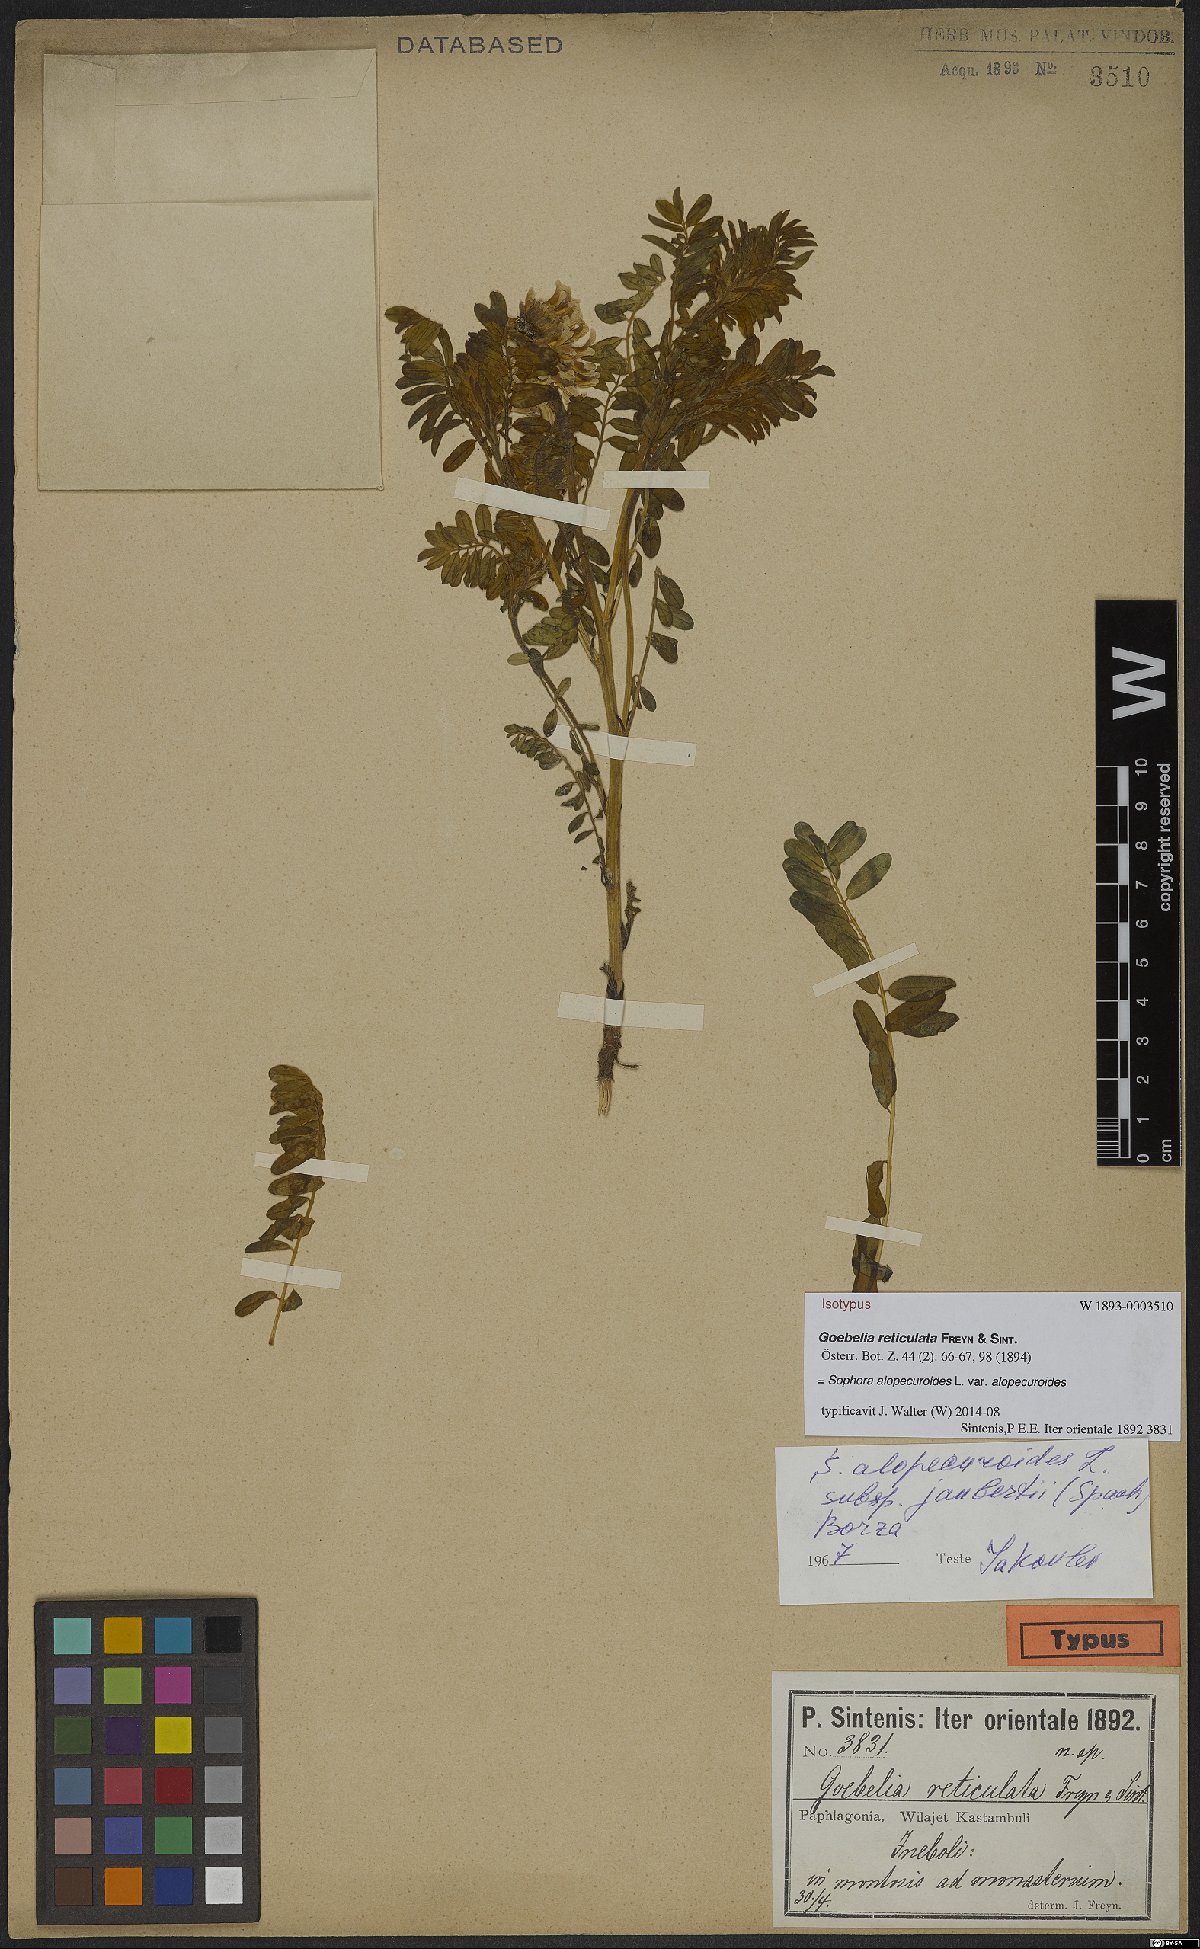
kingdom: Plantae
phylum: Tracheophyta
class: Magnoliopsida
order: Fabales
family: Fabaceae
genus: Sophora
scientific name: Sophora alopecuroides
